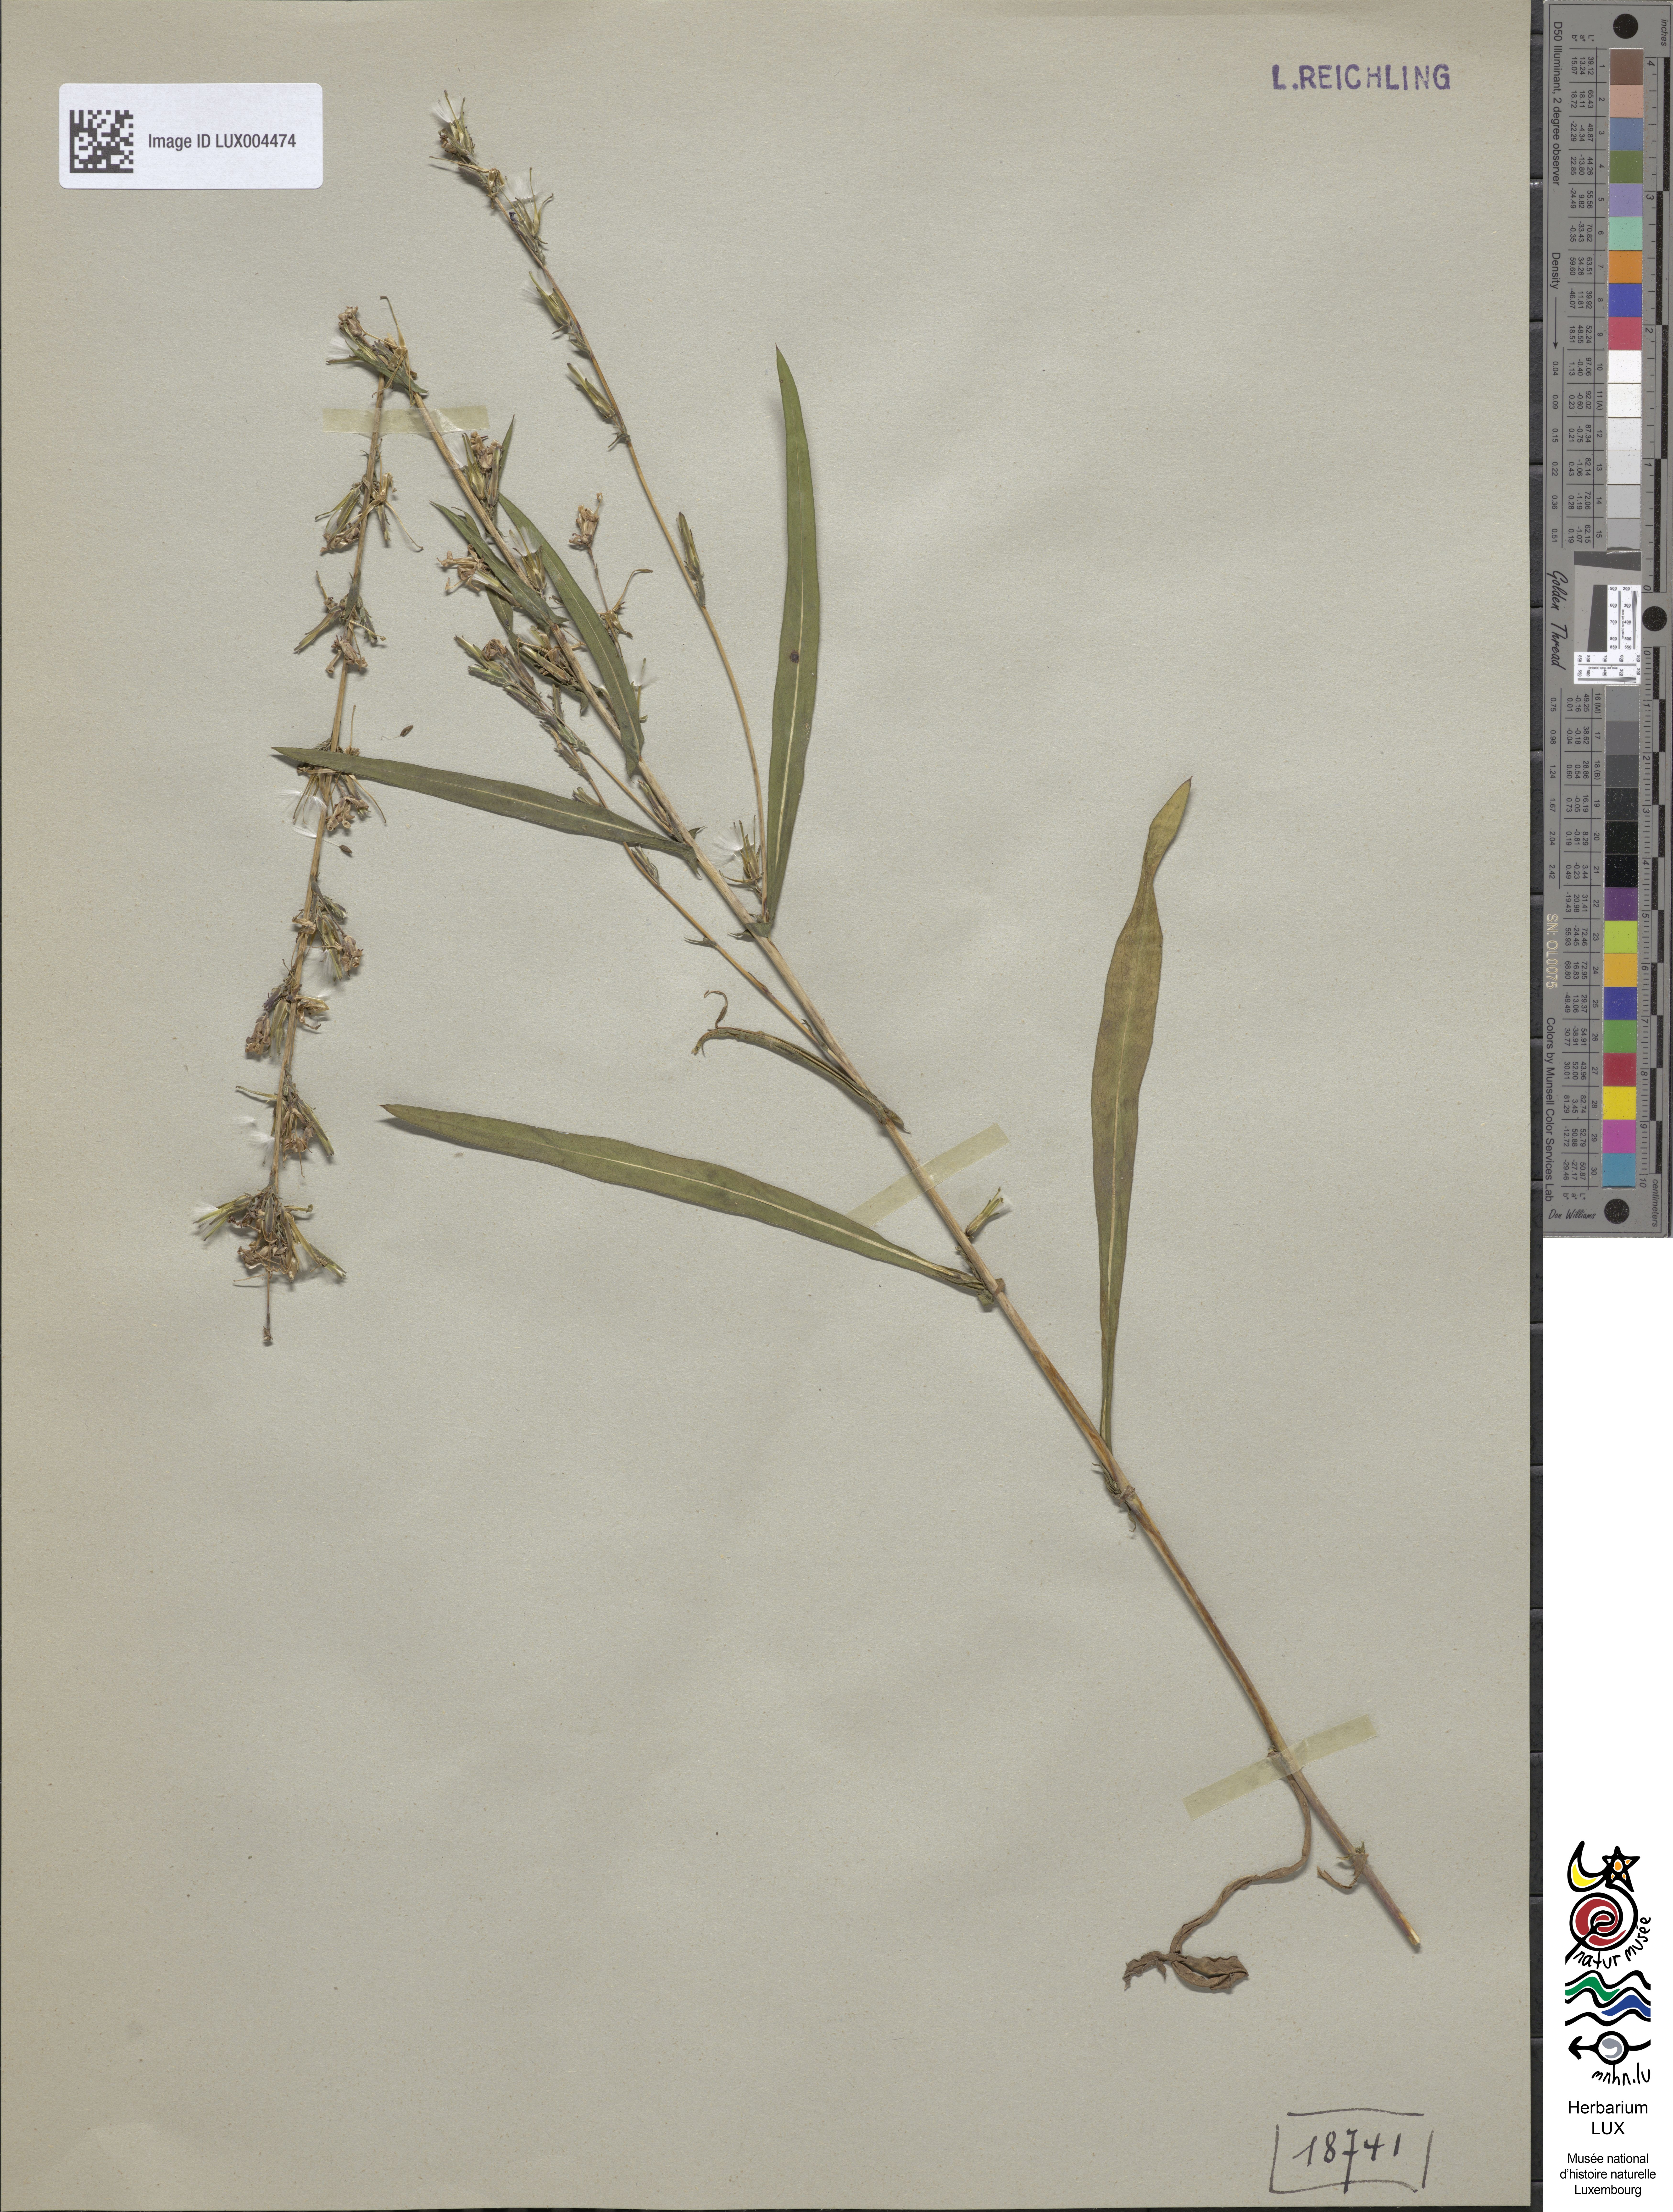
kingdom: Plantae
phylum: Tracheophyta
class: Magnoliopsida
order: Asterales
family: Asteraceae
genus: Lactuca
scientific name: Lactuca saligna
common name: Wild lettuce
